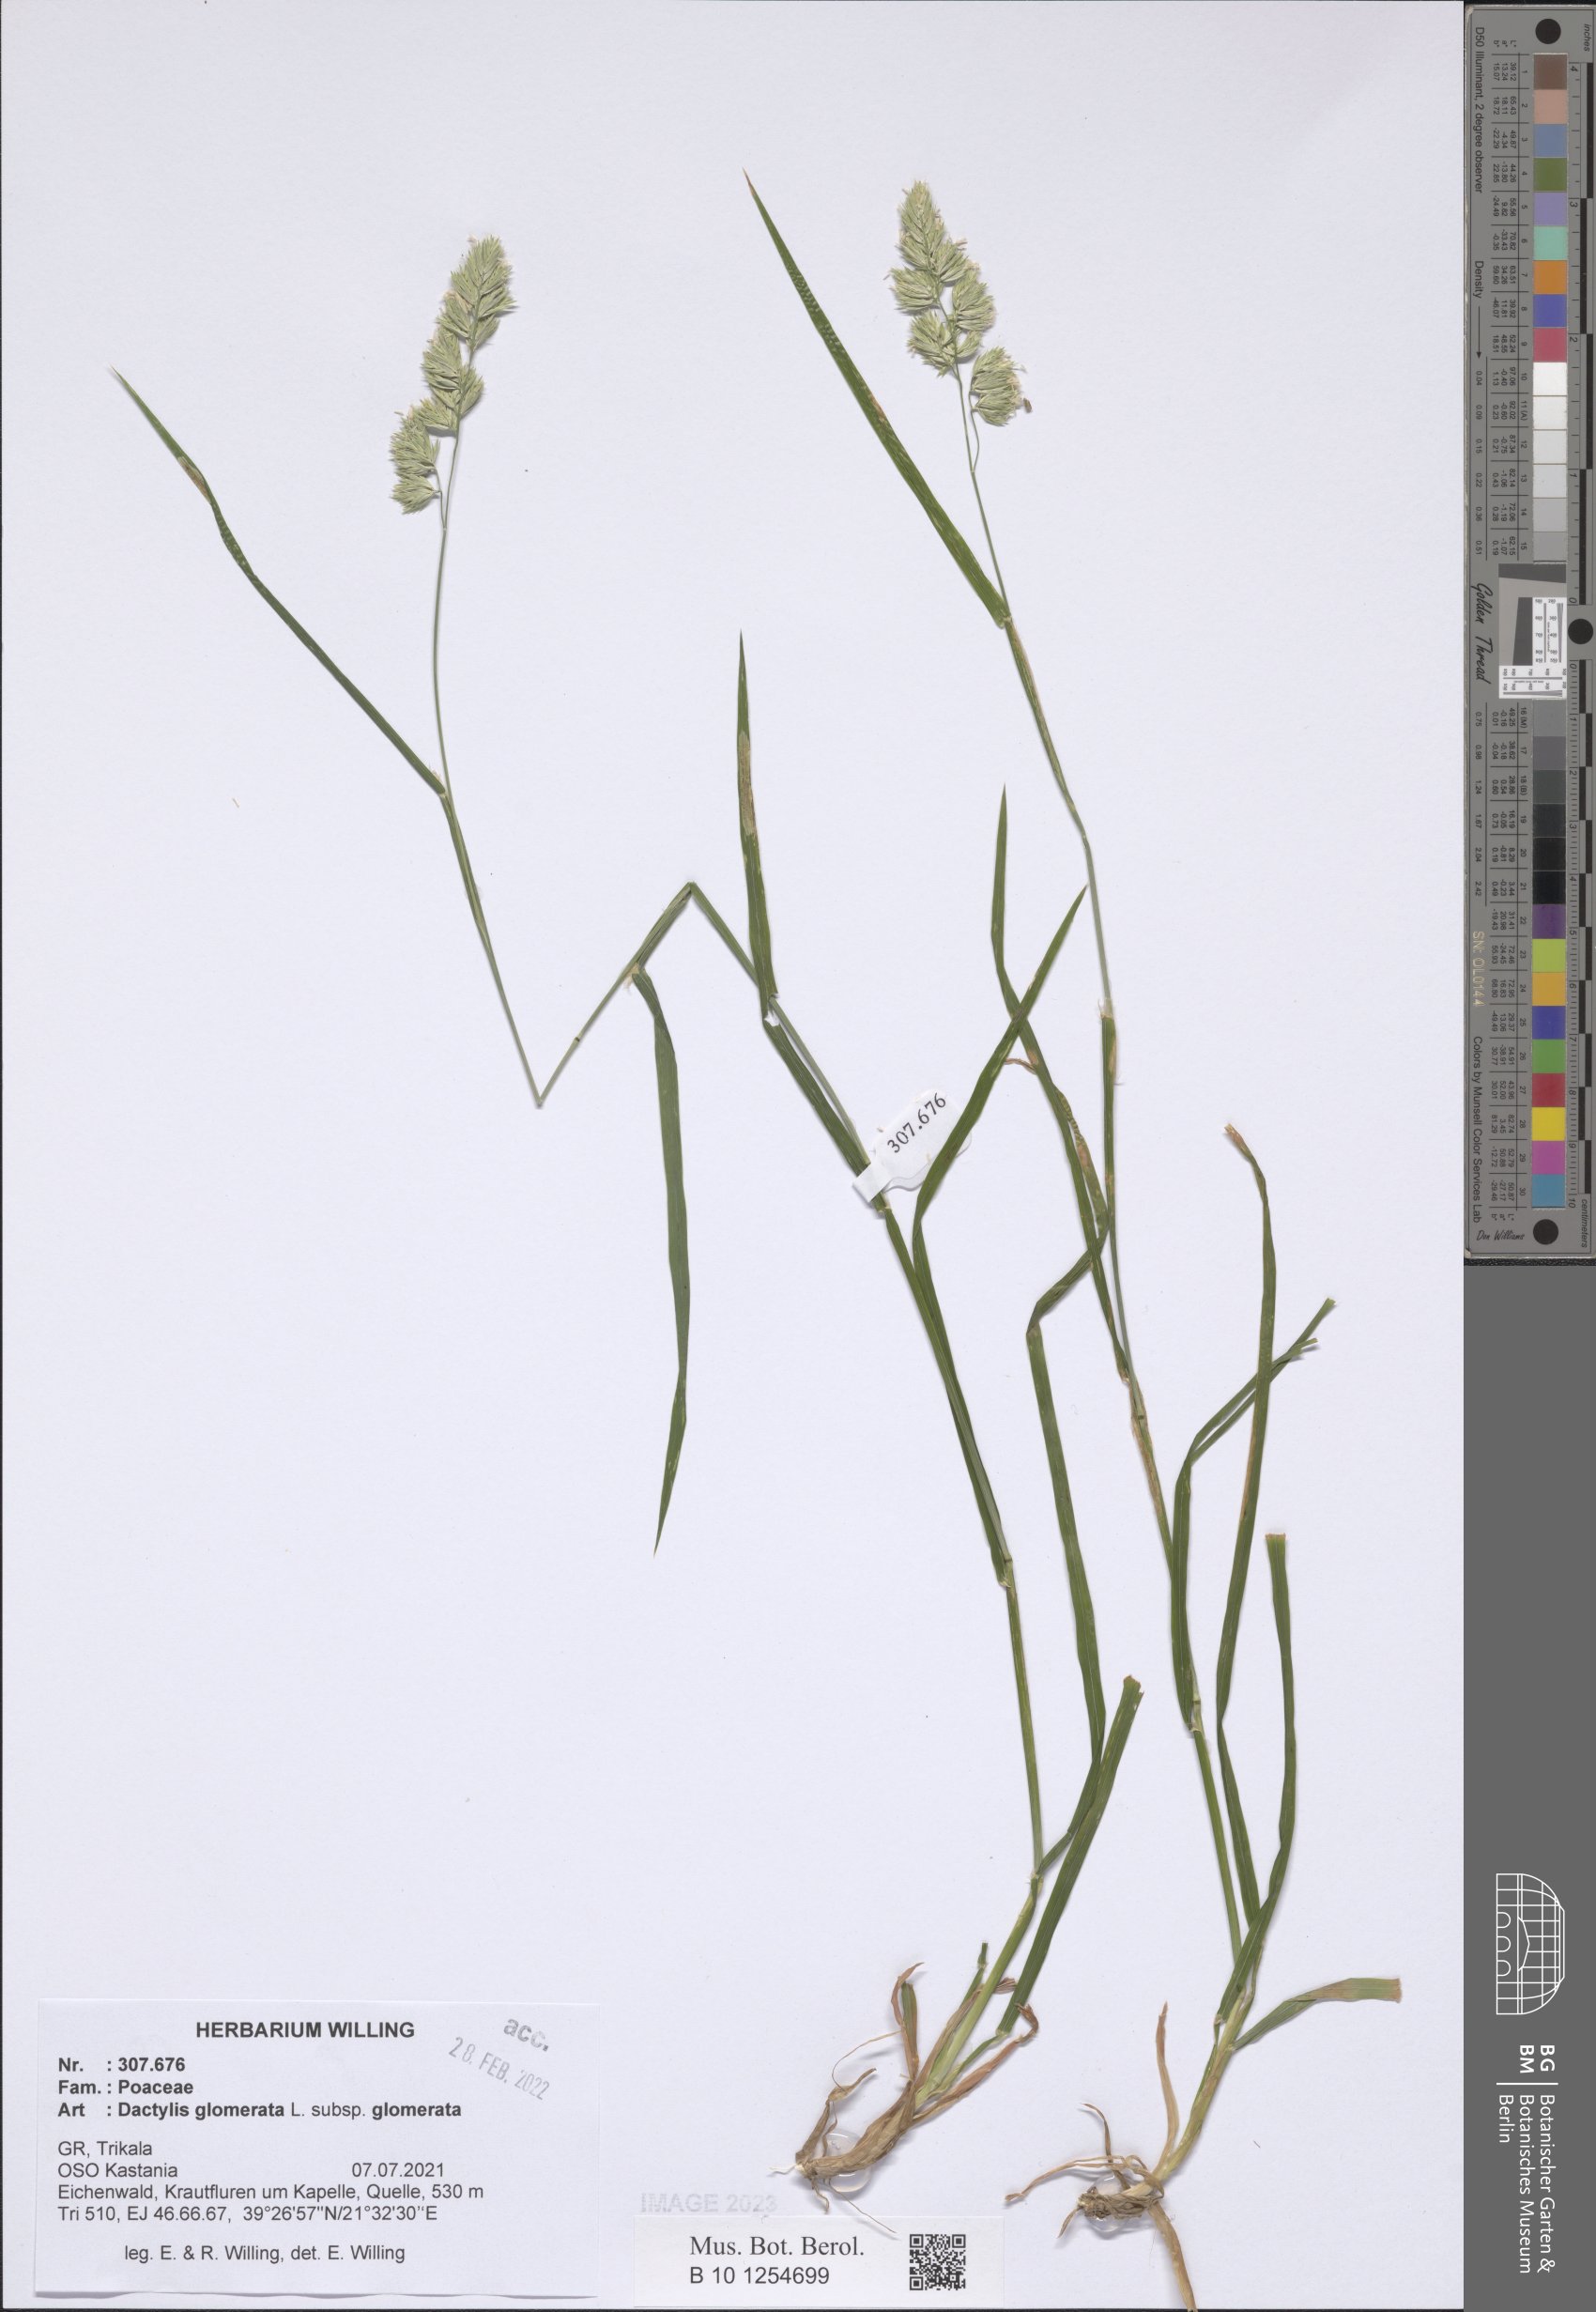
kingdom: Plantae
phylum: Tracheophyta
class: Liliopsida
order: Poales
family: Poaceae
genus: Dactylis
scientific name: Dactylis glomerata
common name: Orchardgrass
